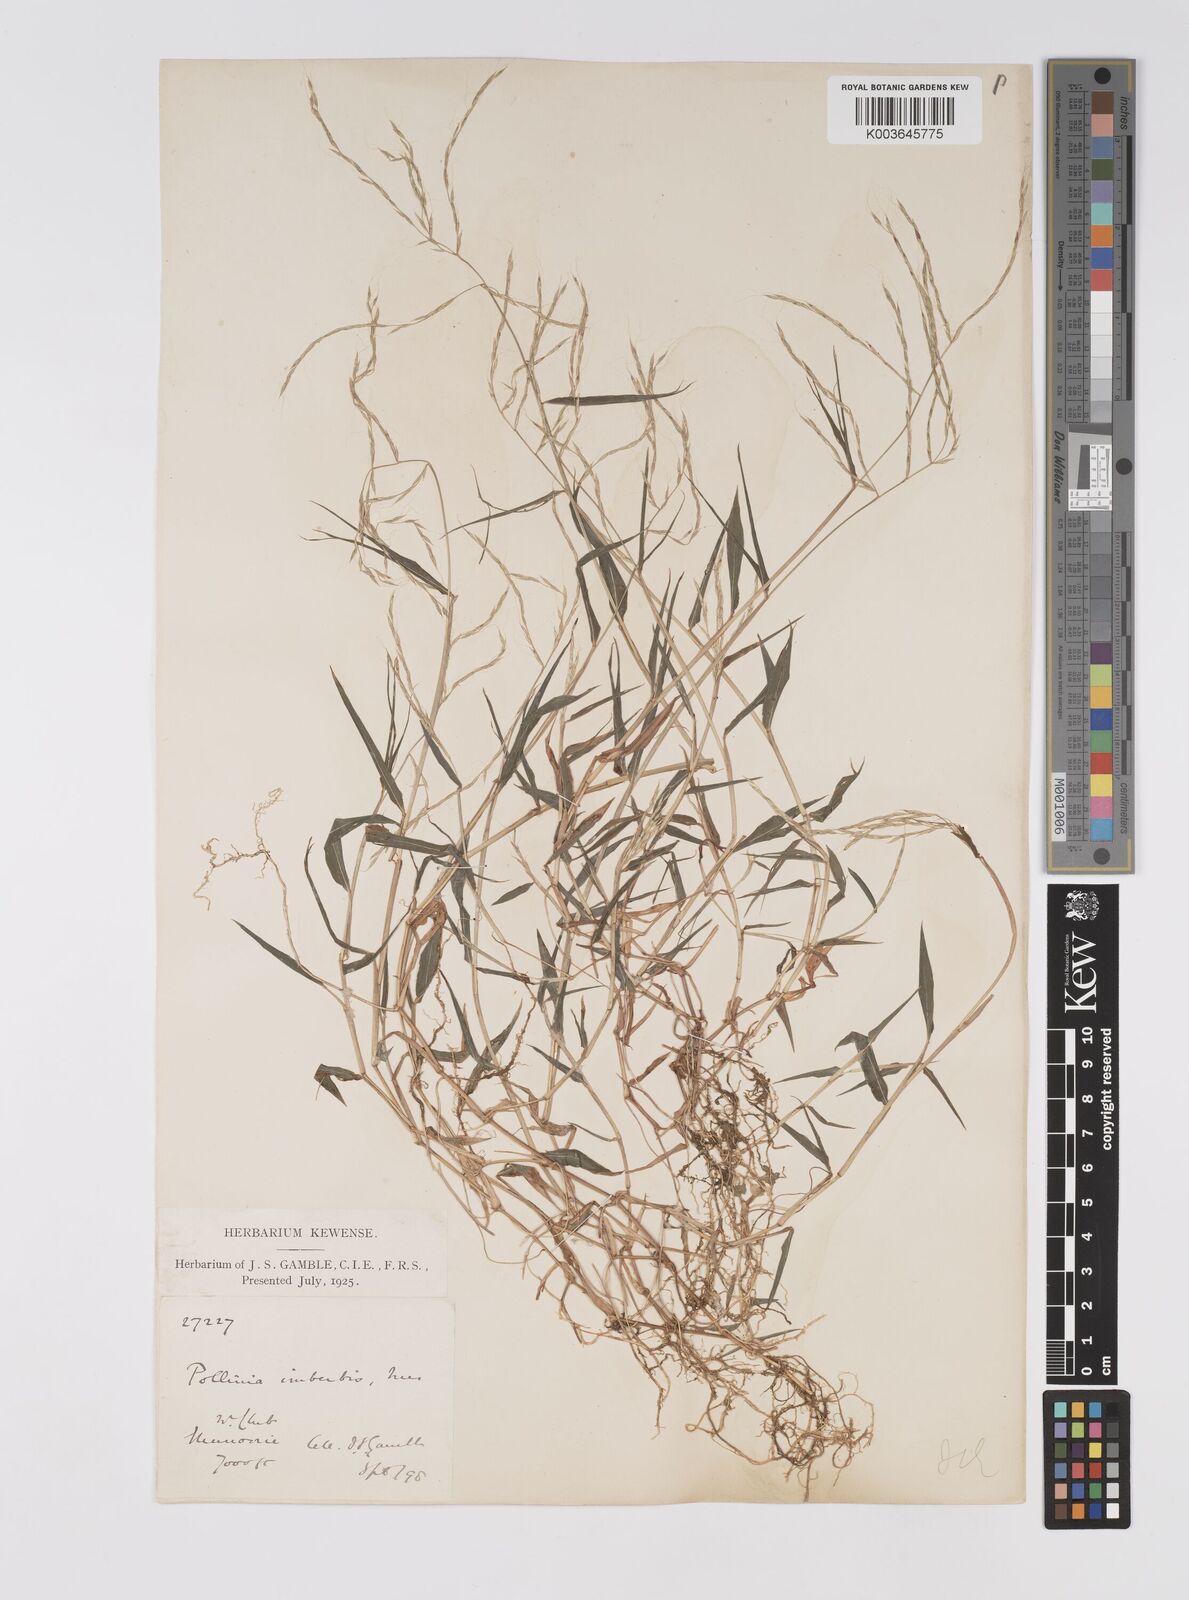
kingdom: Plantae
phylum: Tracheophyta
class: Liliopsida
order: Poales
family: Poaceae
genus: Microstegium
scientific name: Microstegium nudum
